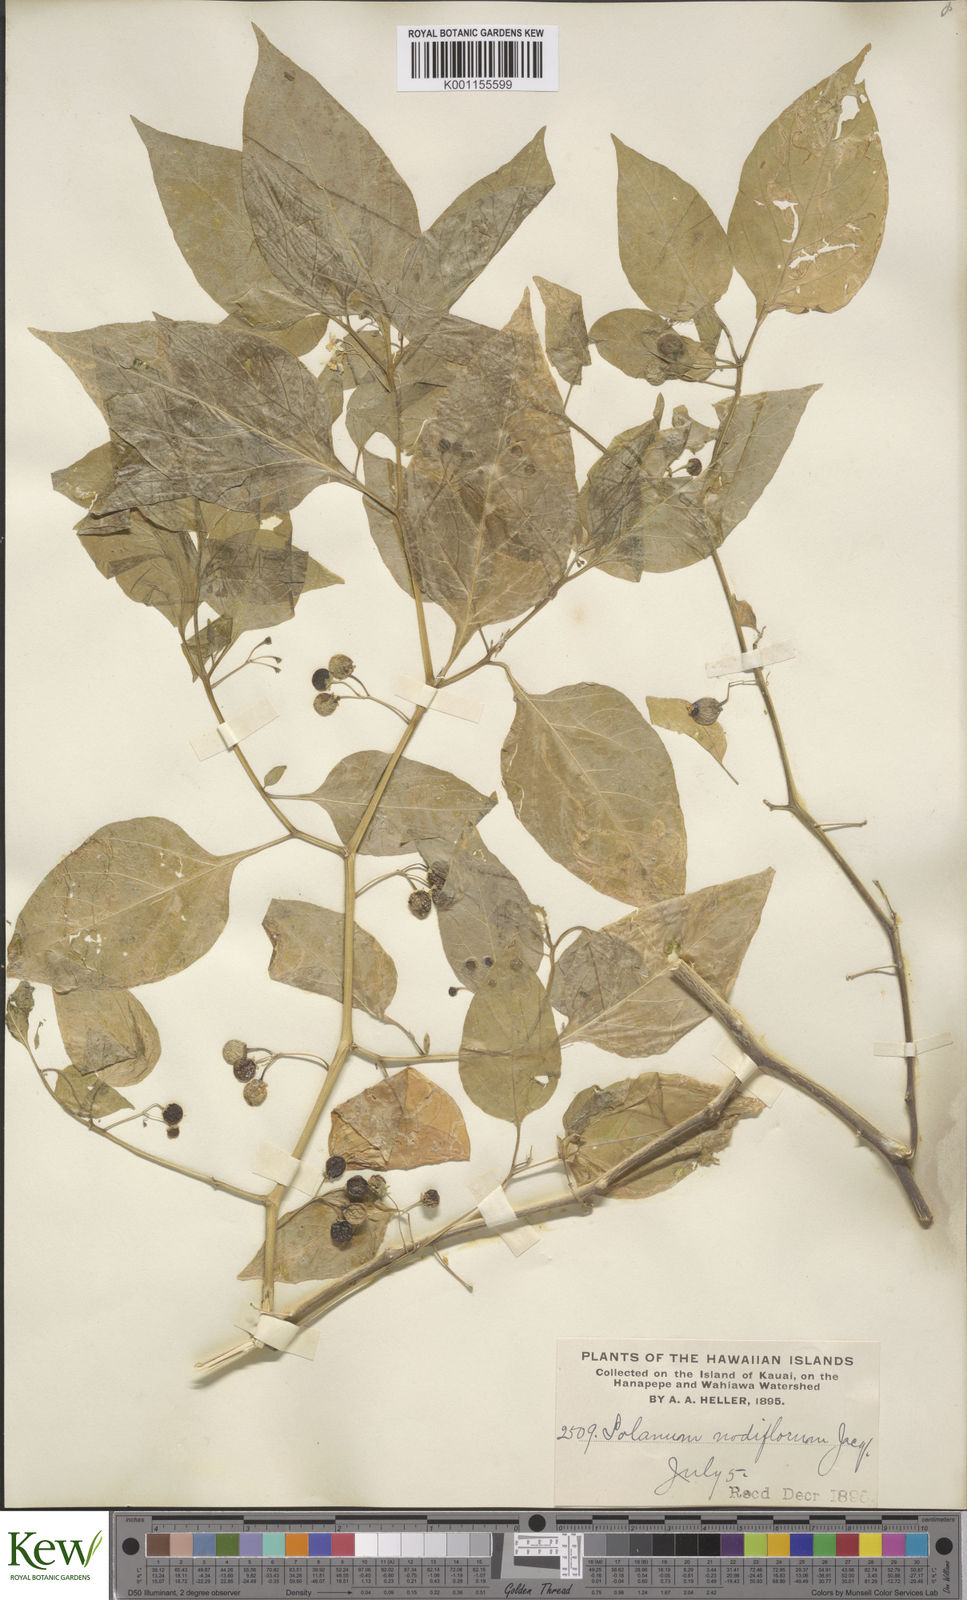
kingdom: Plantae
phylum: Tracheophyta
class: Magnoliopsida
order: Solanales
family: Solanaceae
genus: Solanum
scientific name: Solanum americanum
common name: American black nightshade
